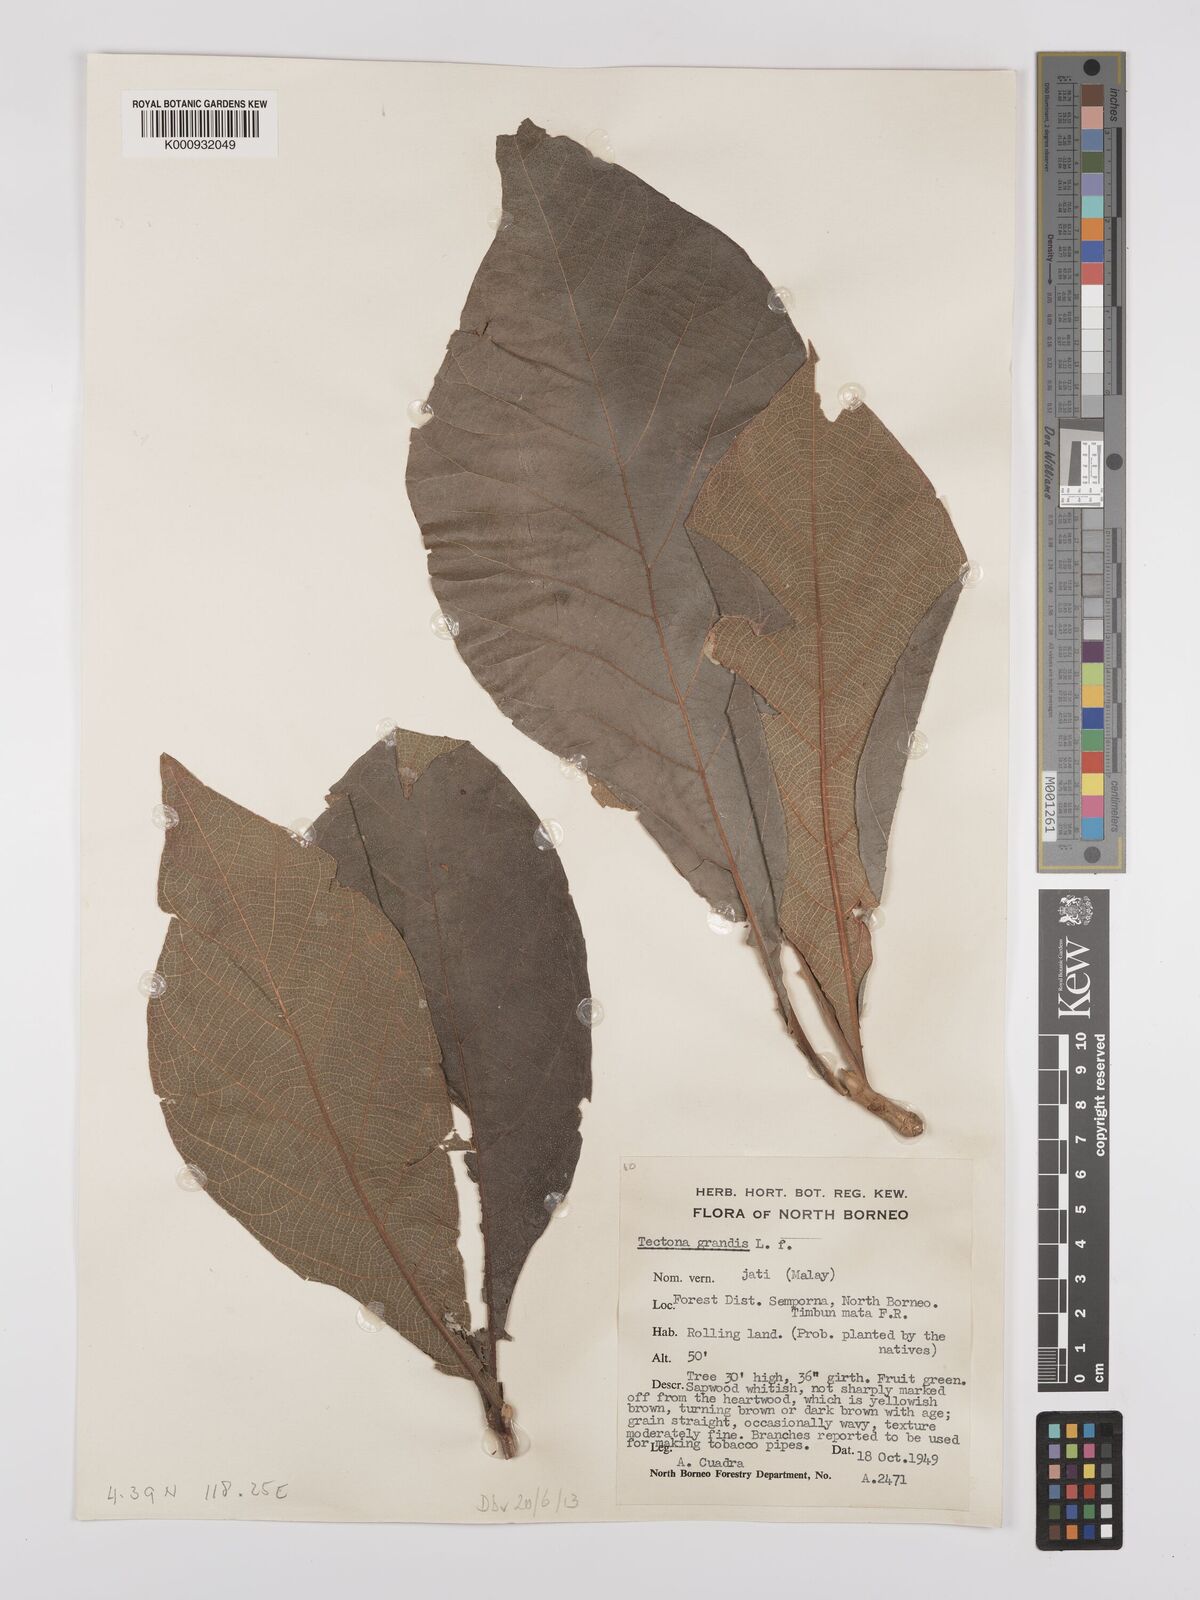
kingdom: Plantae
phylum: Tracheophyta
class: Magnoliopsida
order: Lamiales
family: Lamiaceae
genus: Tectona
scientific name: Tectona grandis
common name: Teak
